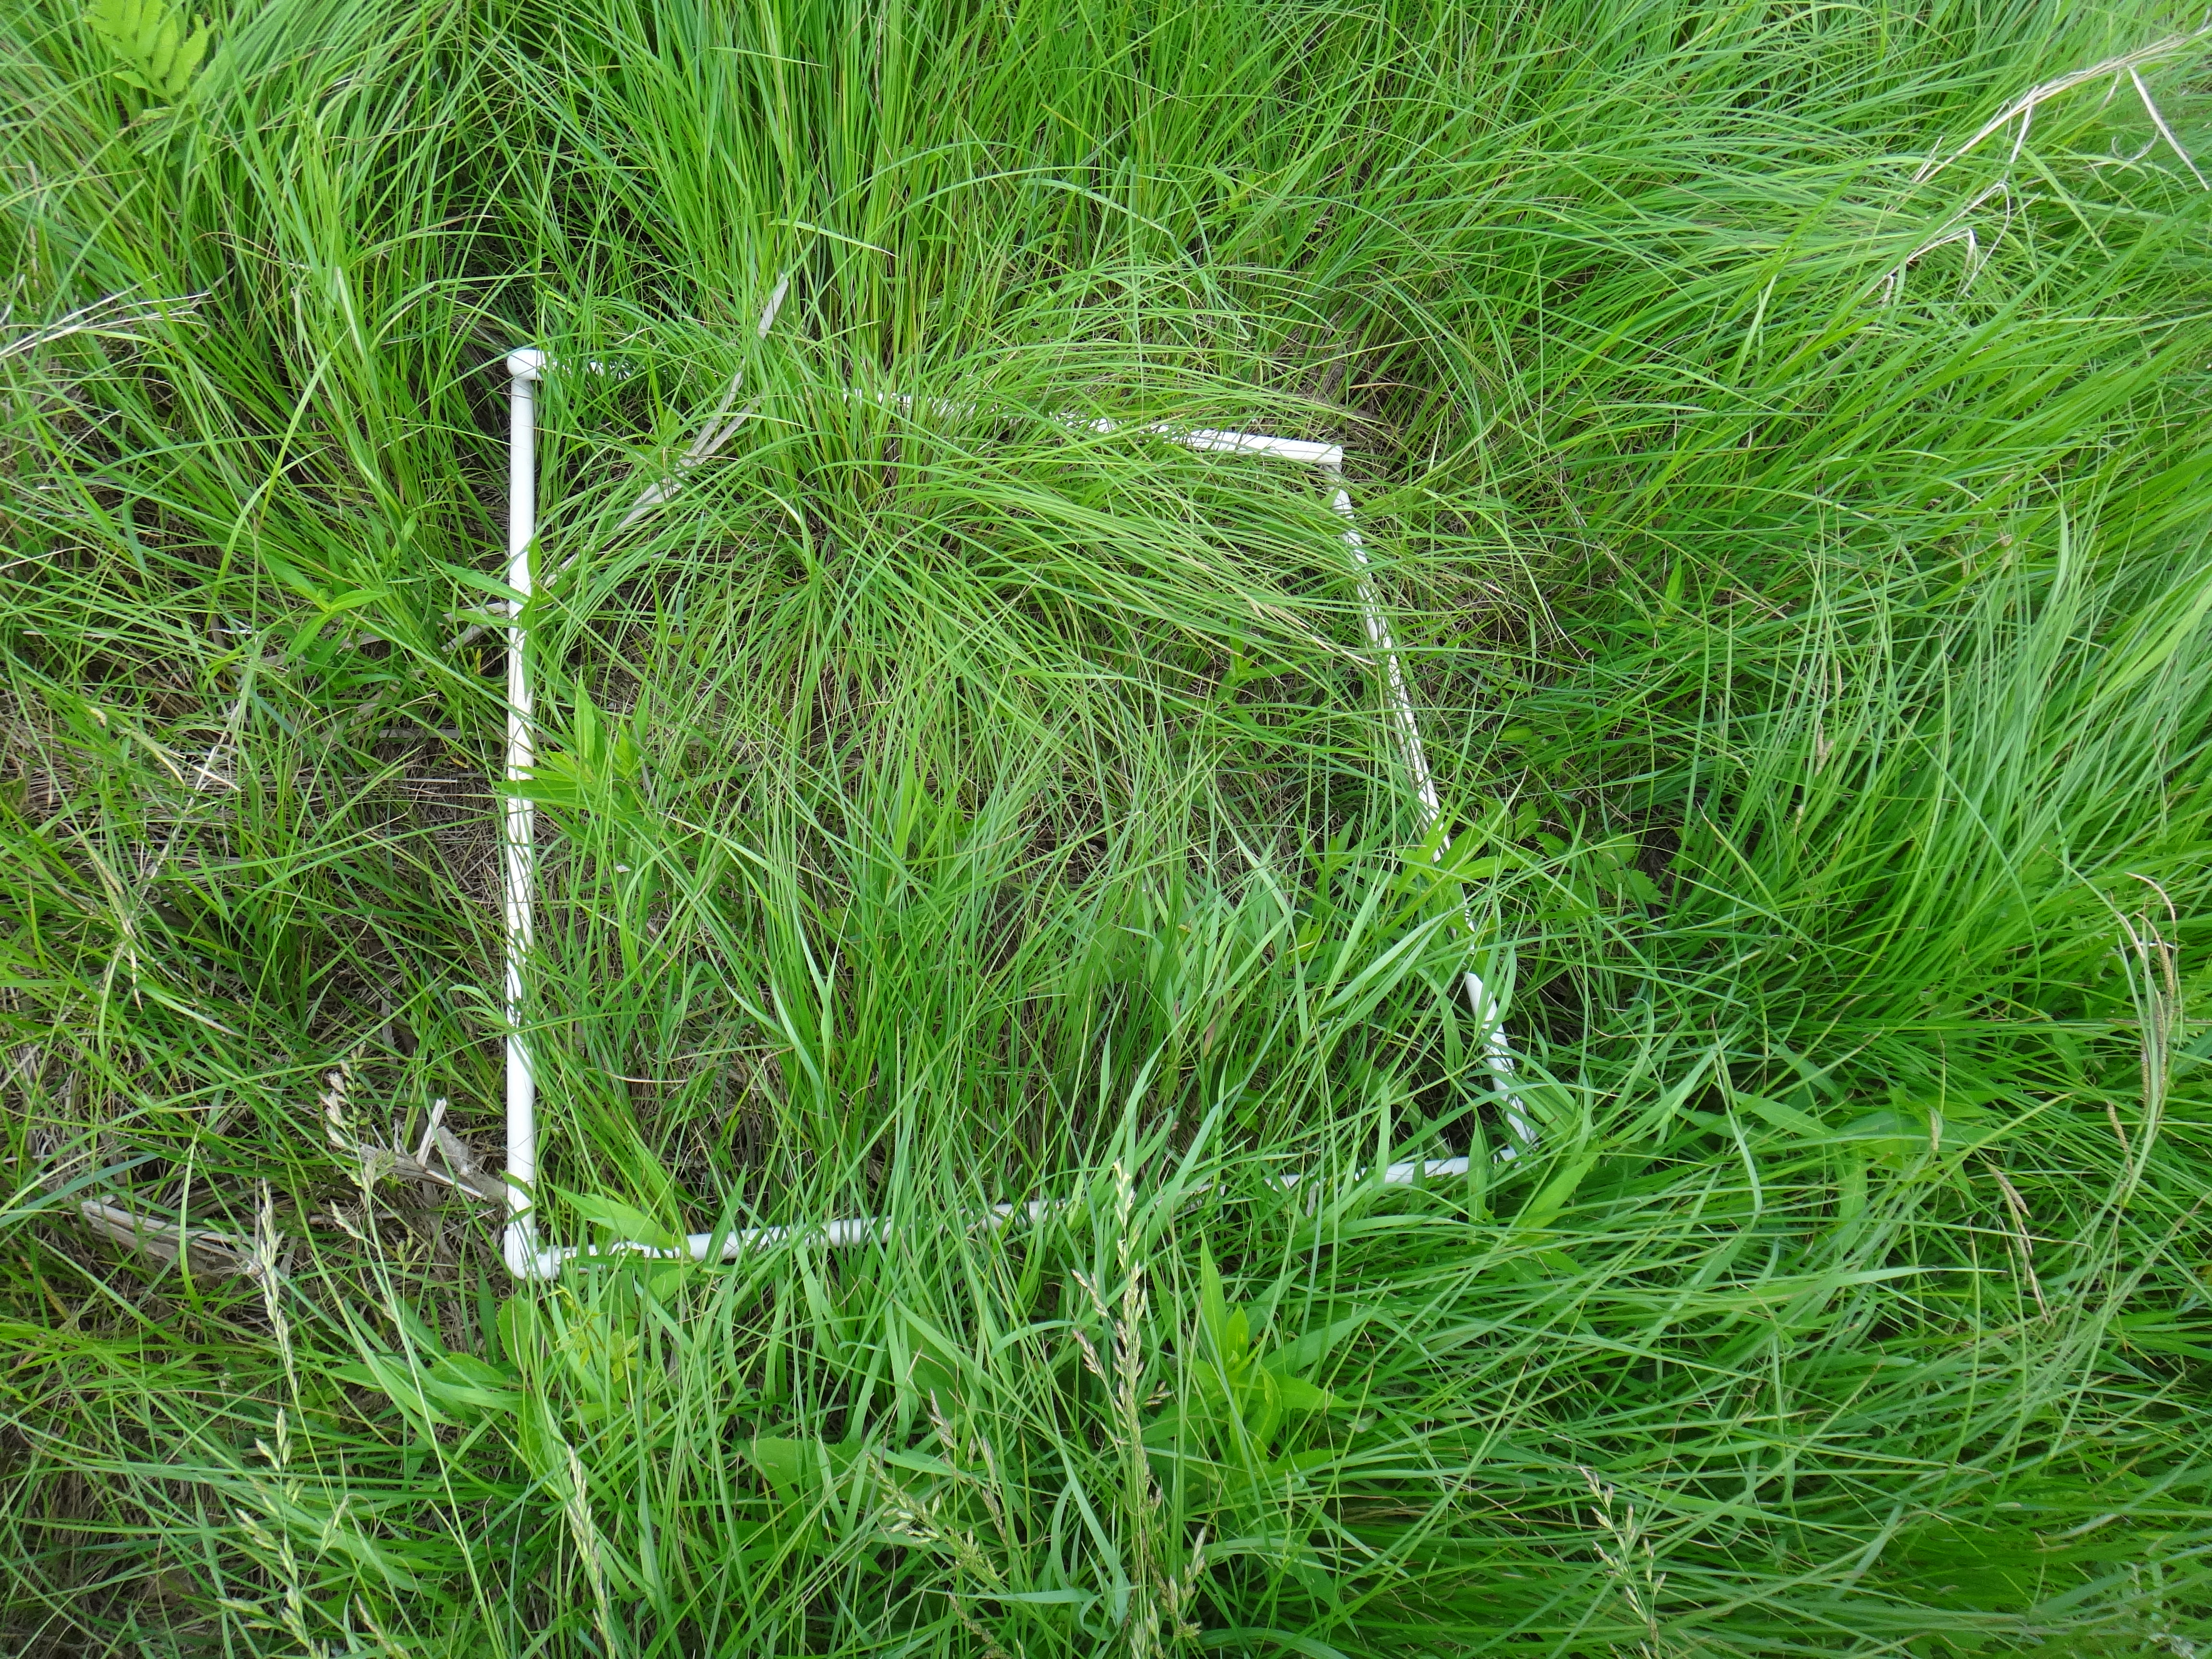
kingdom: Plantae
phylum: Tracheophyta
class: Magnoliopsida
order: Asterales
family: Asteraceae
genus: Symphyotrichum
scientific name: Symphyotrichum puniceum
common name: Bog aster
